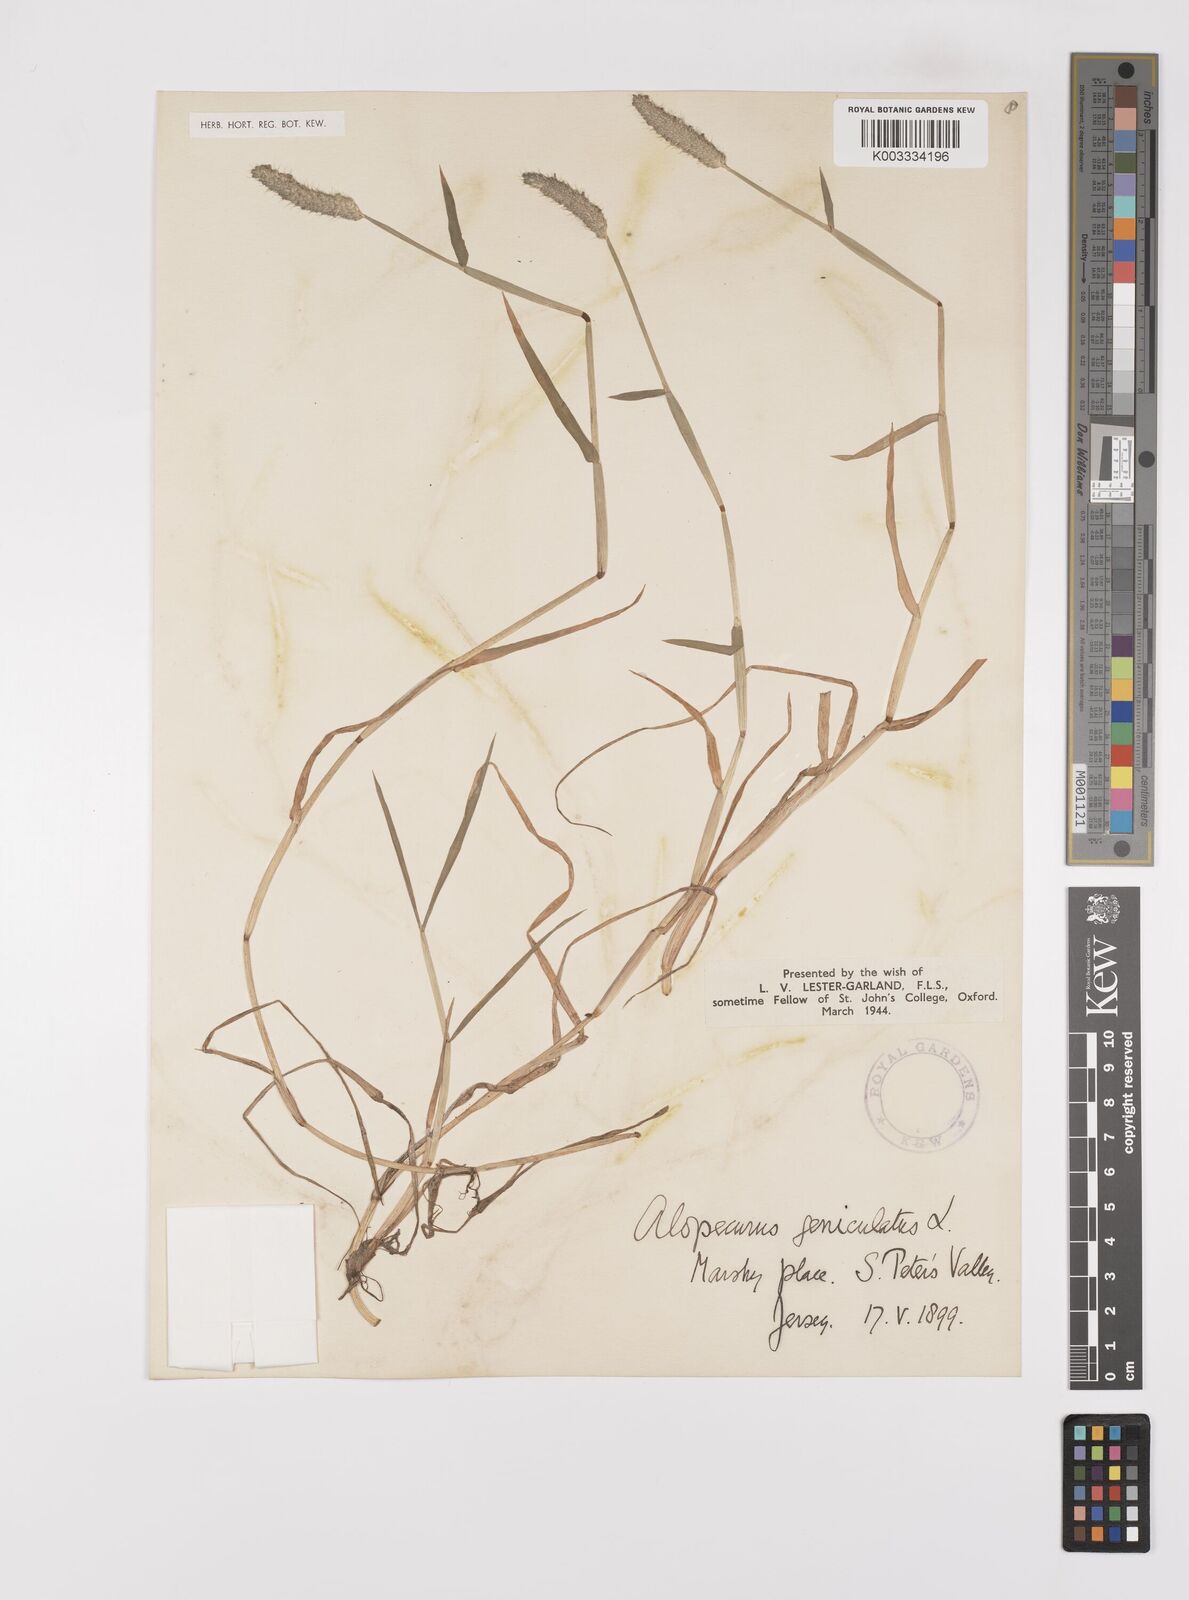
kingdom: Plantae
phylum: Tracheophyta
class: Liliopsida
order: Poales
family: Poaceae
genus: Alopecurus
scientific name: Alopecurus geniculatus
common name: Water foxtail
